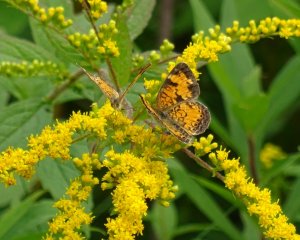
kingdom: Animalia
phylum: Arthropoda
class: Insecta
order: Lepidoptera
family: Nymphalidae
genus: Phyciodes
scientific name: Phyciodes tharos
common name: Northern Crescent
